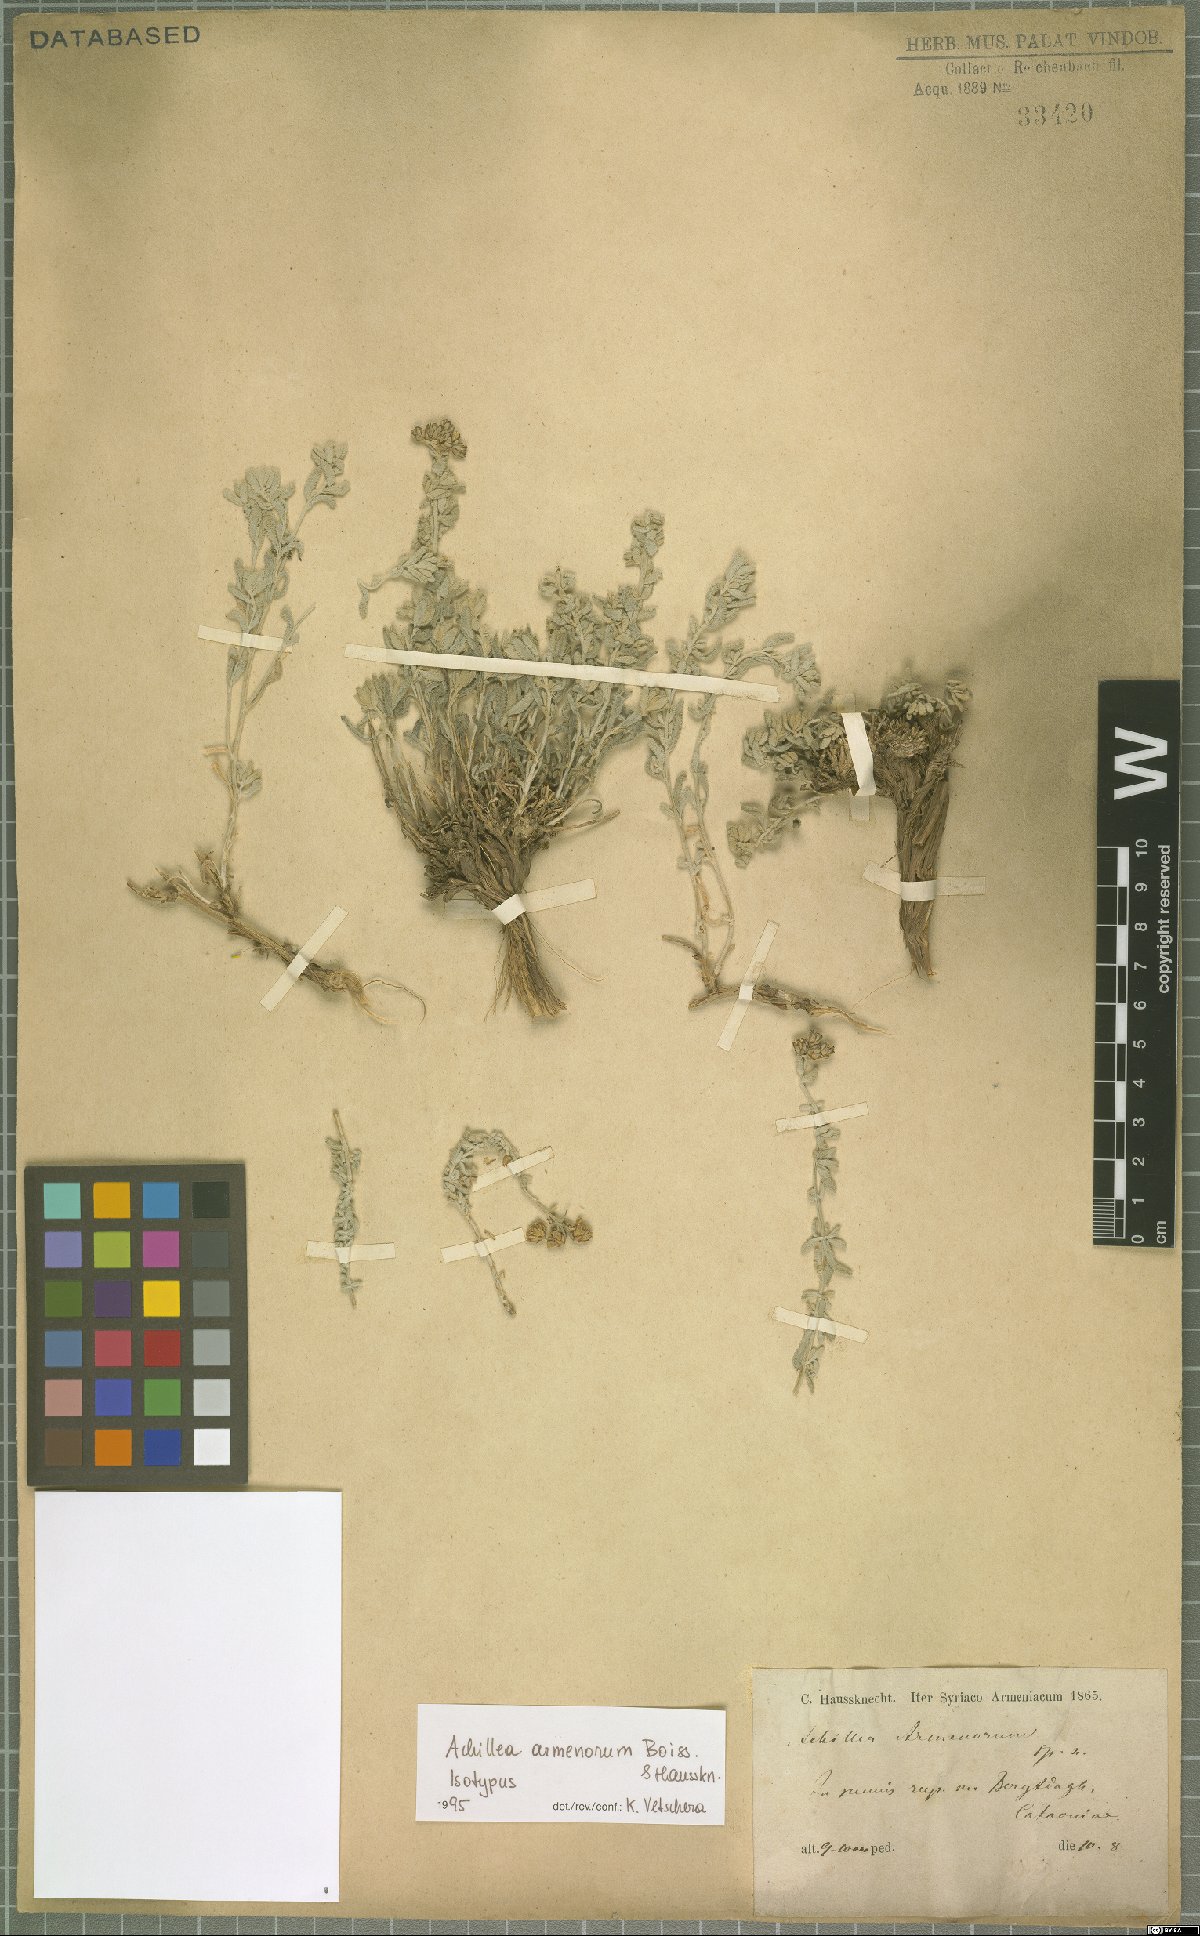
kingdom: Plantae
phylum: Tracheophyta
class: Magnoliopsida
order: Asterales
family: Asteraceae
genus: Achillea
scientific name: Achillea armenorum
